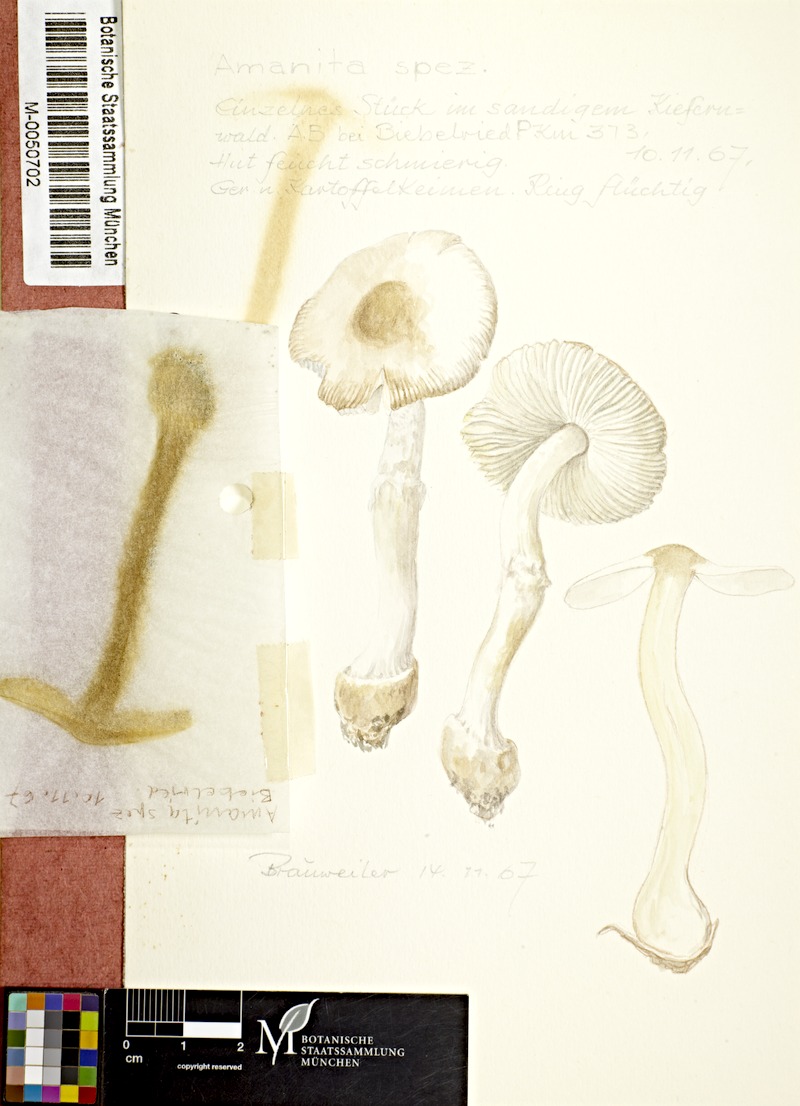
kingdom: Fungi
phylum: Basidiomycota
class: Agaricomycetes
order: Agaricales
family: Amanitaceae
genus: Amanita
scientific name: Amanita
